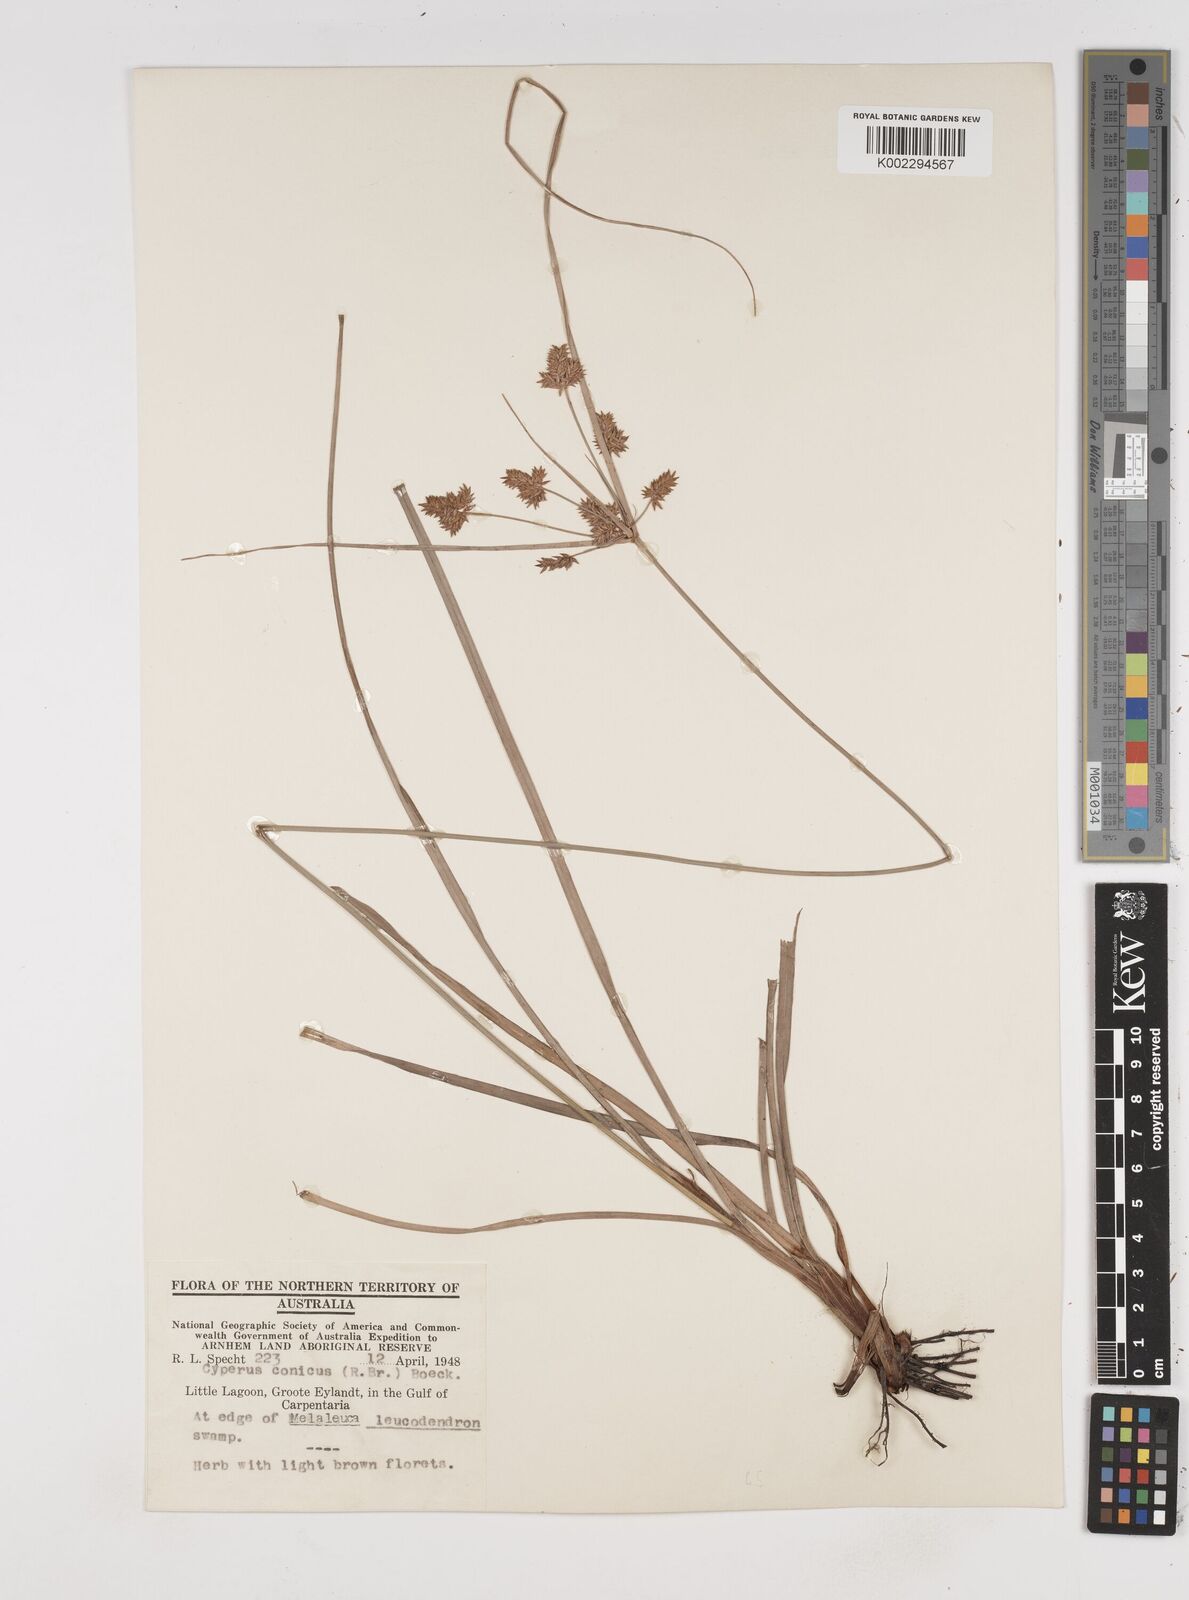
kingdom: Plantae
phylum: Tracheophyta
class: Liliopsida
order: Poales
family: Cyperaceae
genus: Cyperus
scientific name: Cyperus conicus
